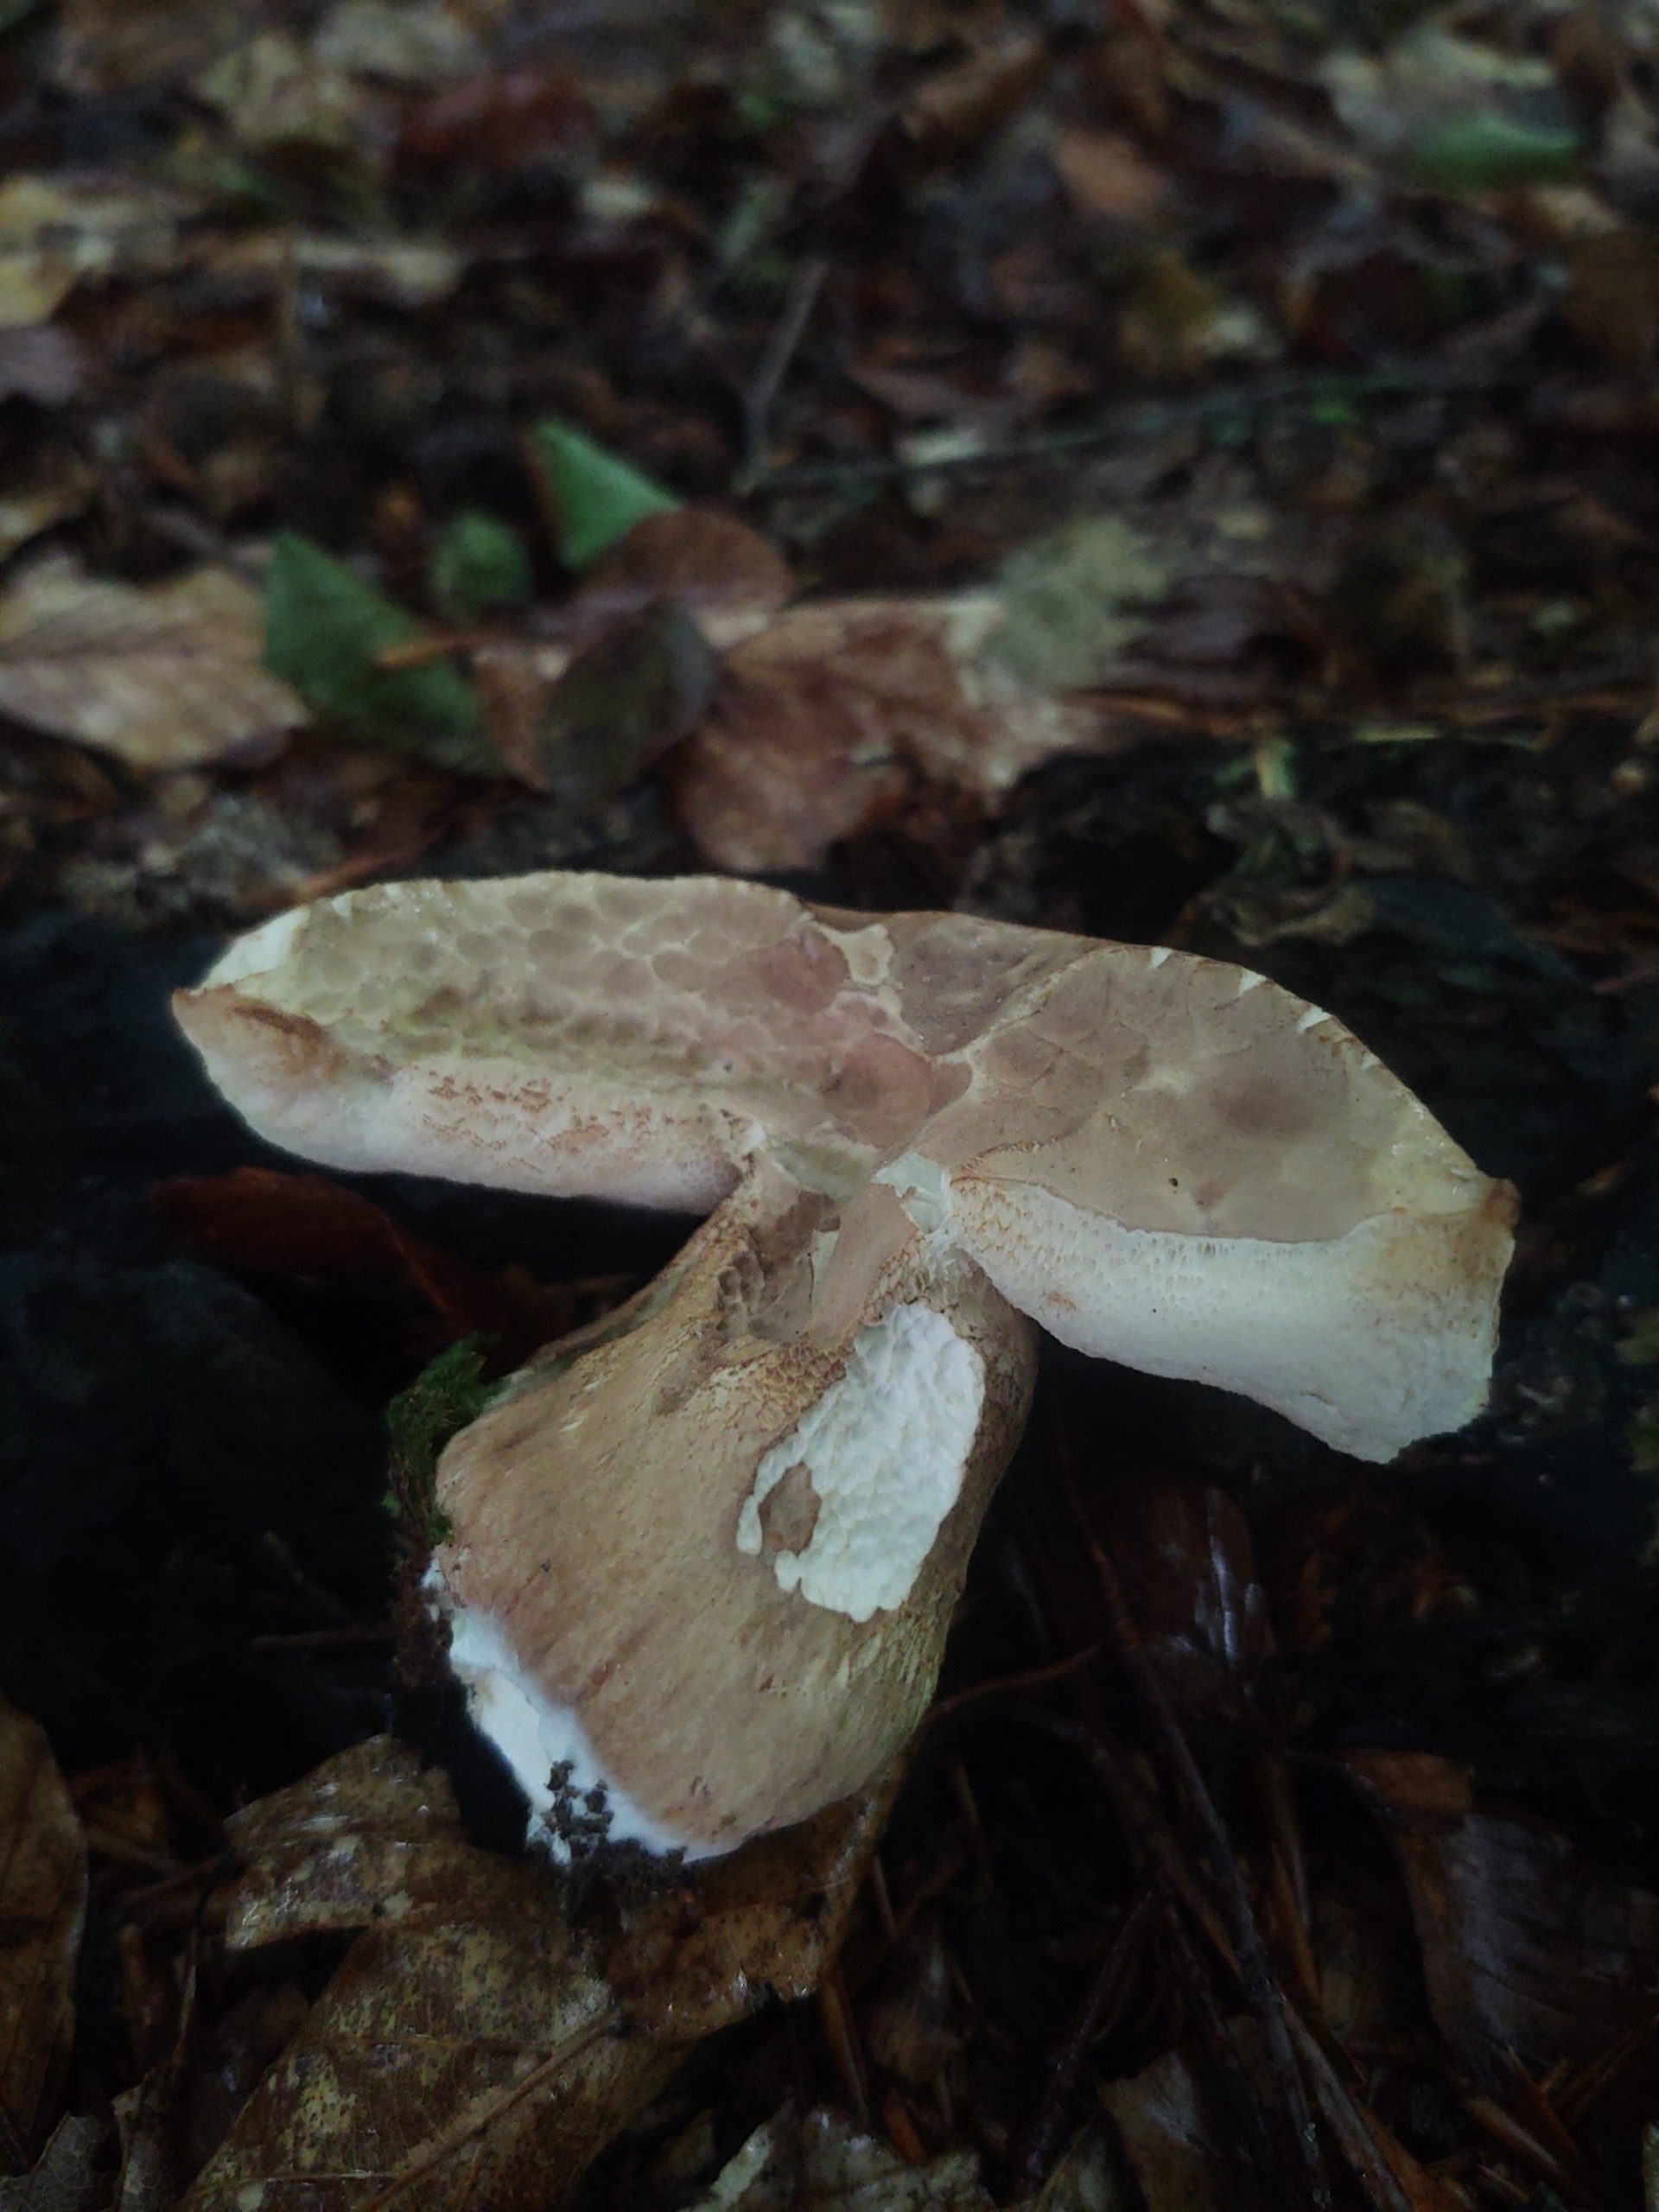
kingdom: Fungi
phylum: Basidiomycota
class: Agaricomycetes
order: Boletales
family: Boletaceae
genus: Tylopilus
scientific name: Tylopilus felleus
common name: Galderørhat
